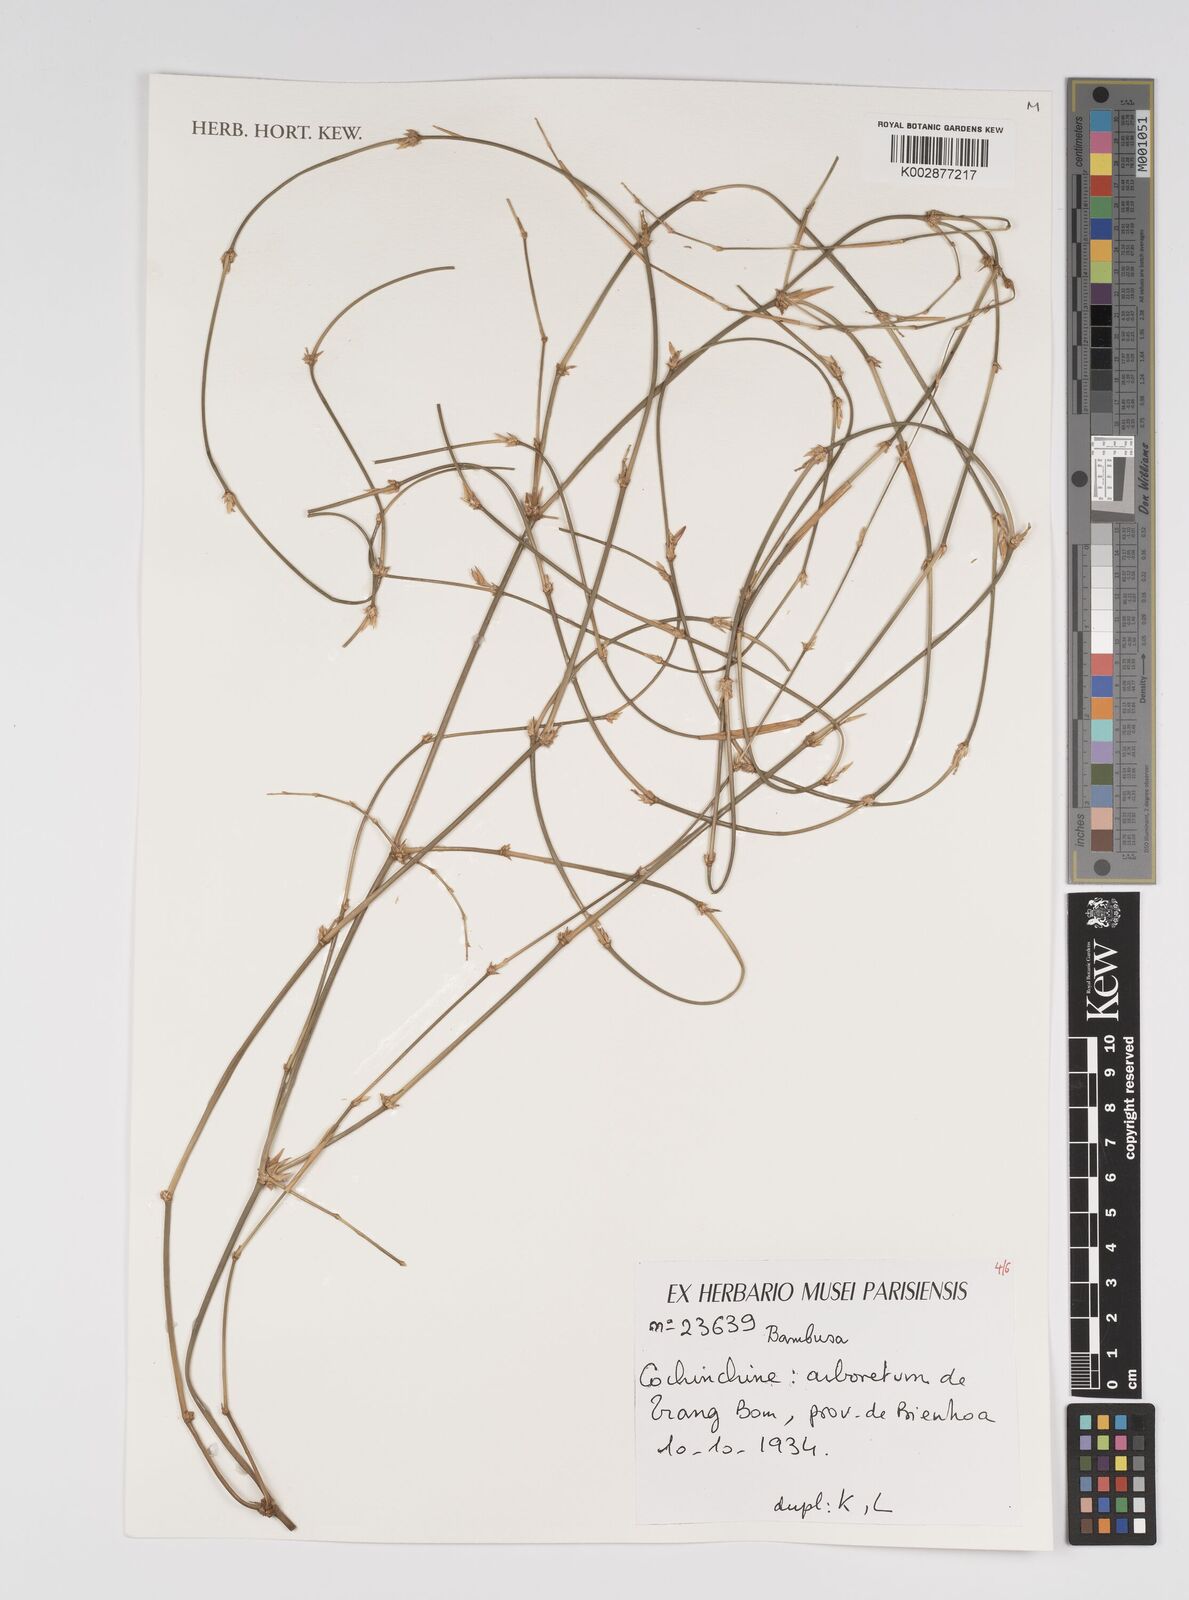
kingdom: Plantae
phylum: Tracheophyta
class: Liliopsida
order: Poales
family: Poaceae
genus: Bambusa
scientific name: Bambusa
